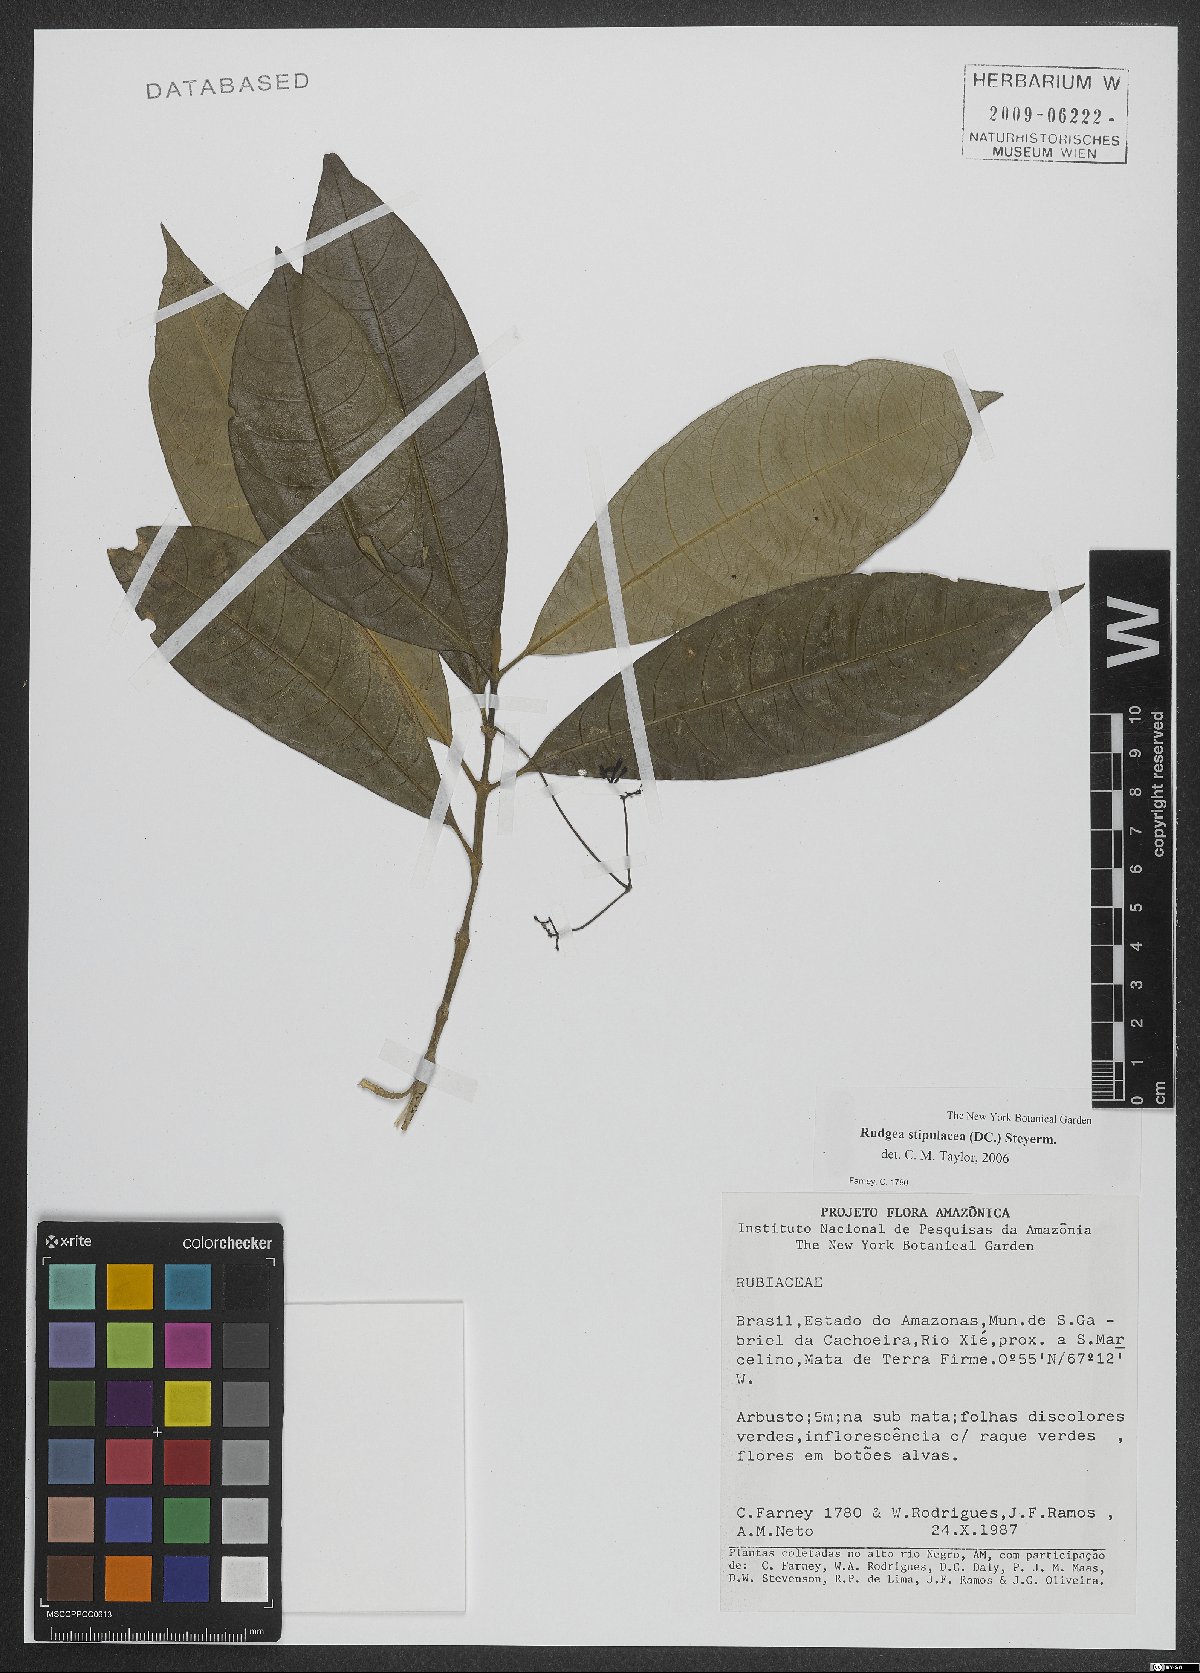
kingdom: Plantae
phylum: Tracheophyta
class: Magnoliopsida
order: Gentianales
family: Rubiaceae
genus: Rudgea
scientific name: Rudgea stipulacea
